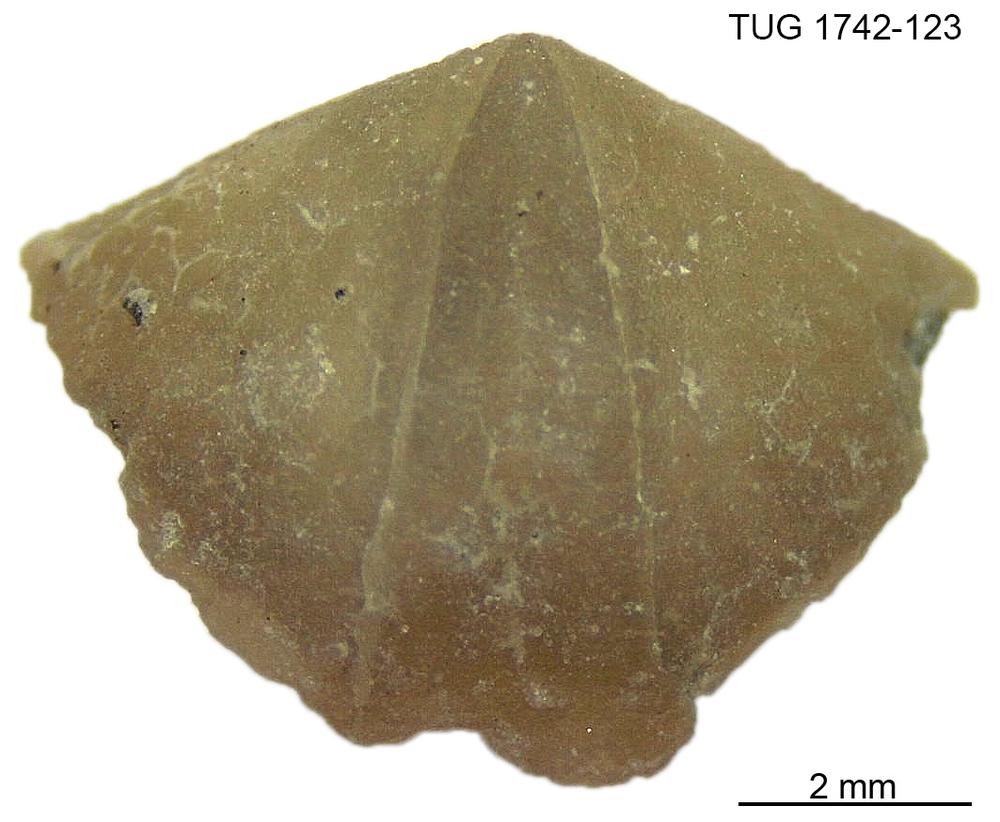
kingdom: Animalia
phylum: Brachiopoda
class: Rhynchonellata
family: Cyrtiidae
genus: Cyrtia
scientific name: Cyrtia
